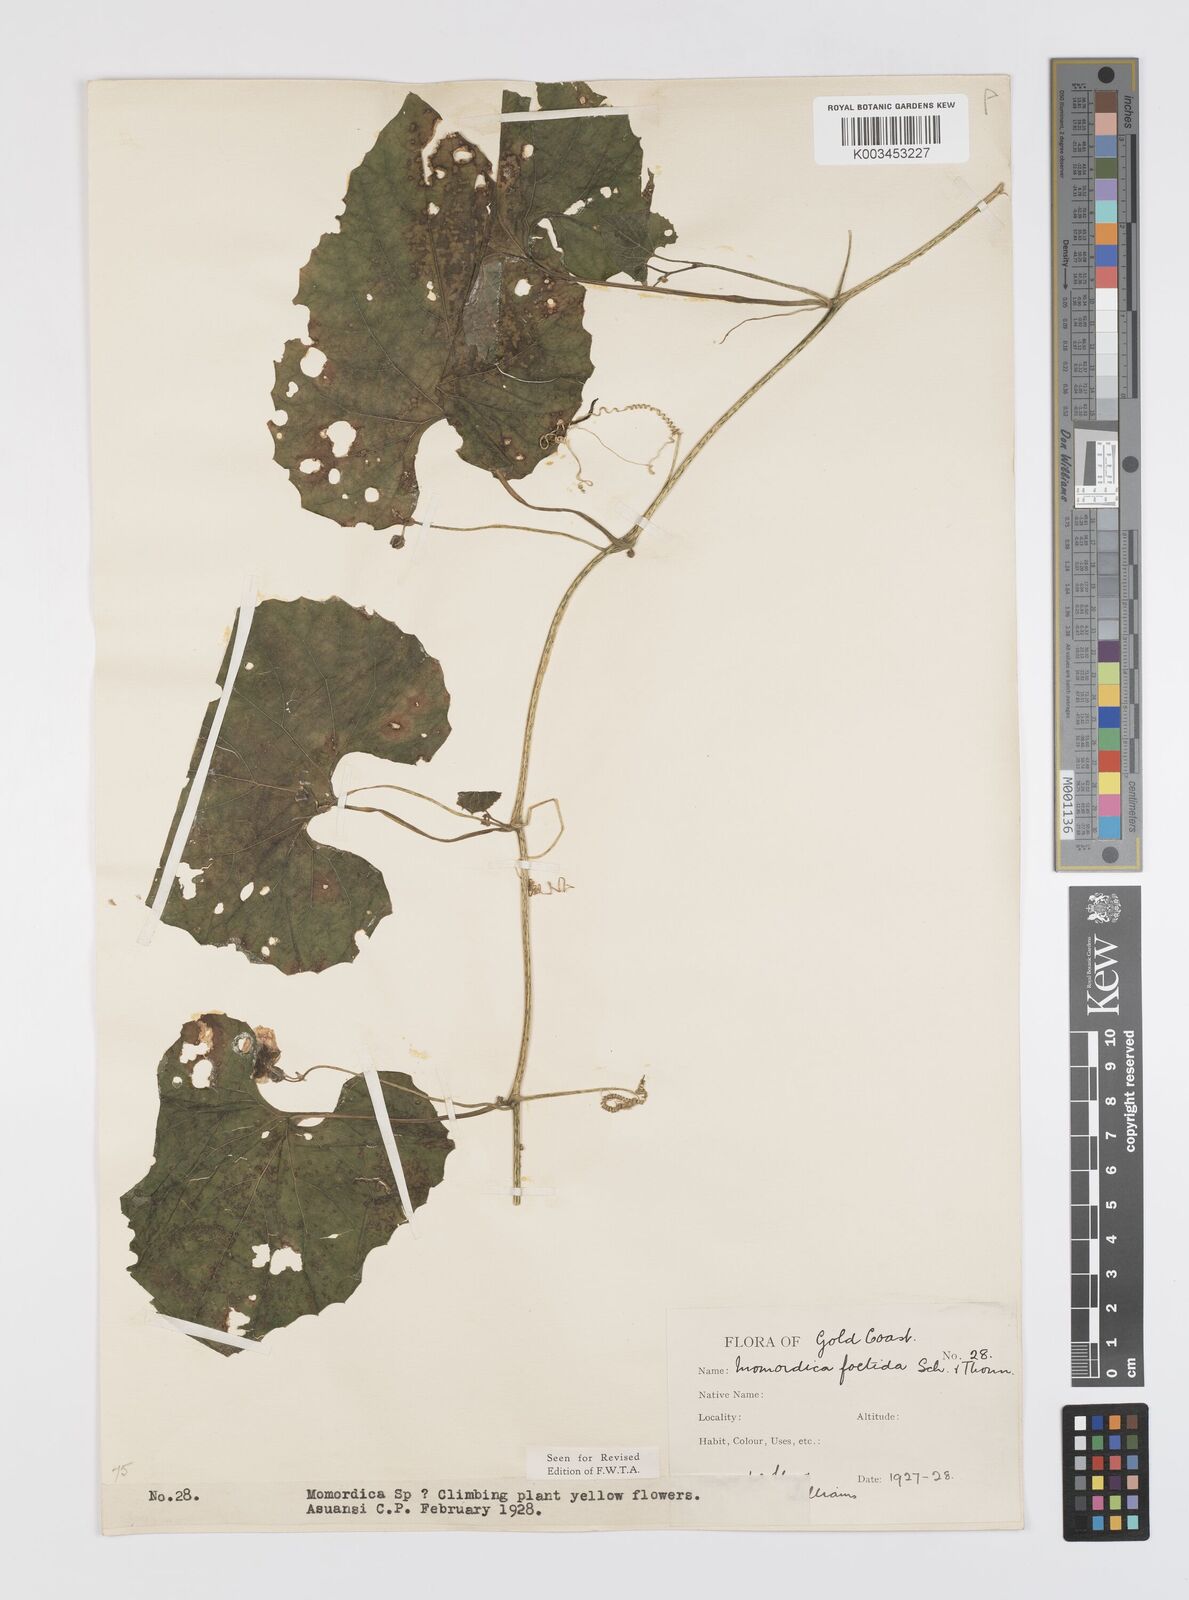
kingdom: Plantae
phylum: Tracheophyta
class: Magnoliopsida
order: Cucurbitales
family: Cucurbitaceae
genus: Momordica
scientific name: Momordica foetida
